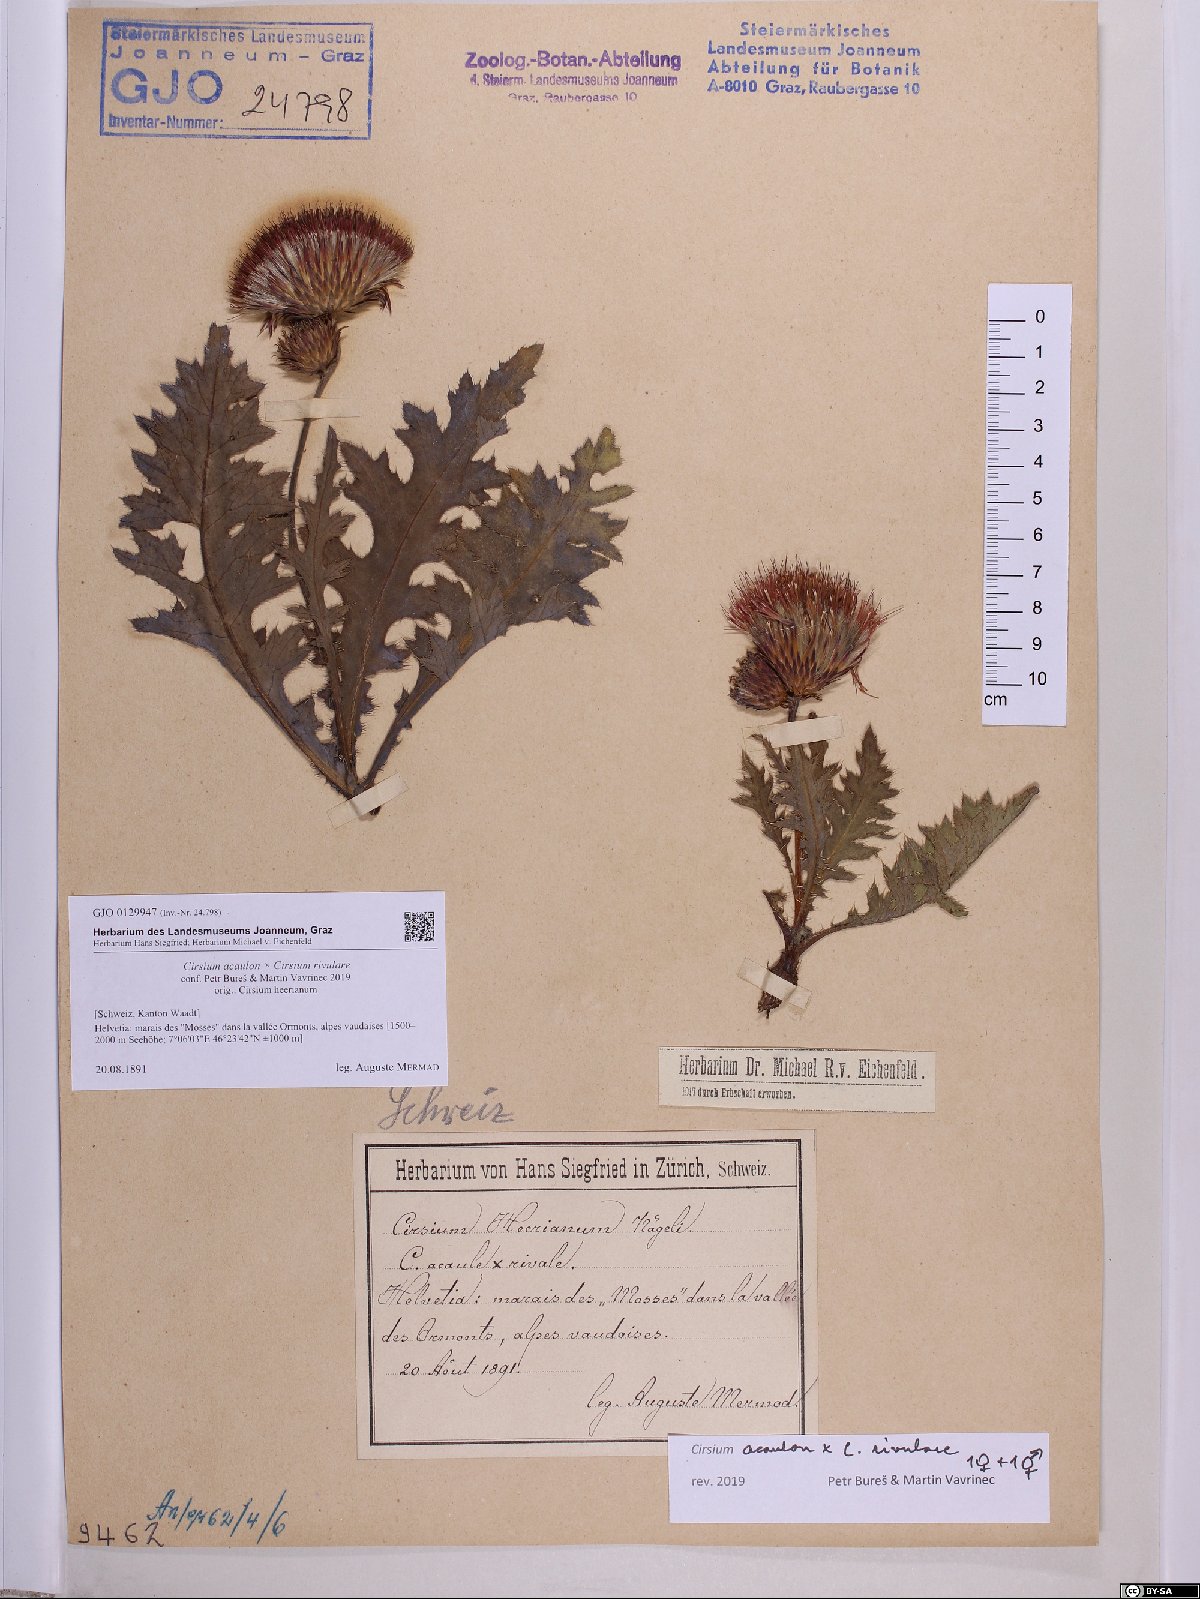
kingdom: Plantae
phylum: Tracheophyta
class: Magnoliopsida
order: Asterales
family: Asteraceae
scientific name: Asteraceae
